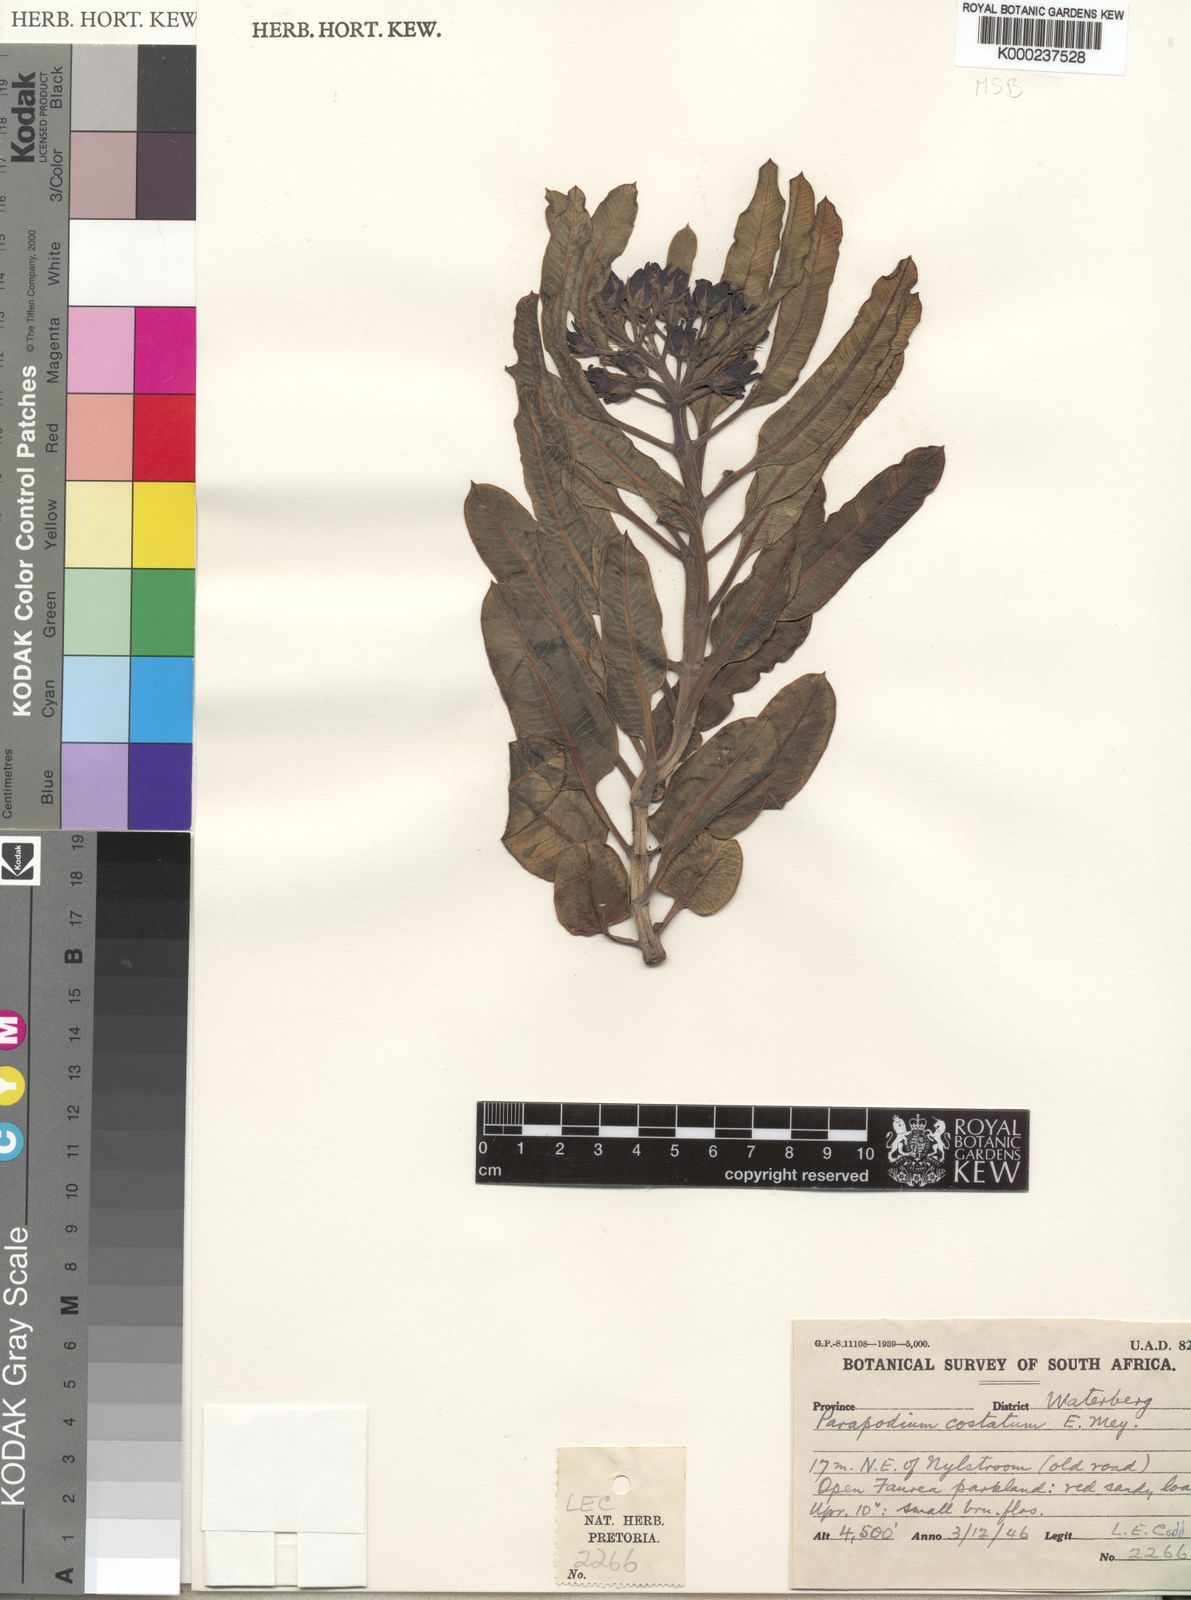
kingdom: Plantae
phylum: Tracheophyta
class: Magnoliopsida
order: Gentianales
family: Apocynaceae
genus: Parapodium
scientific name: Parapodium costatum
